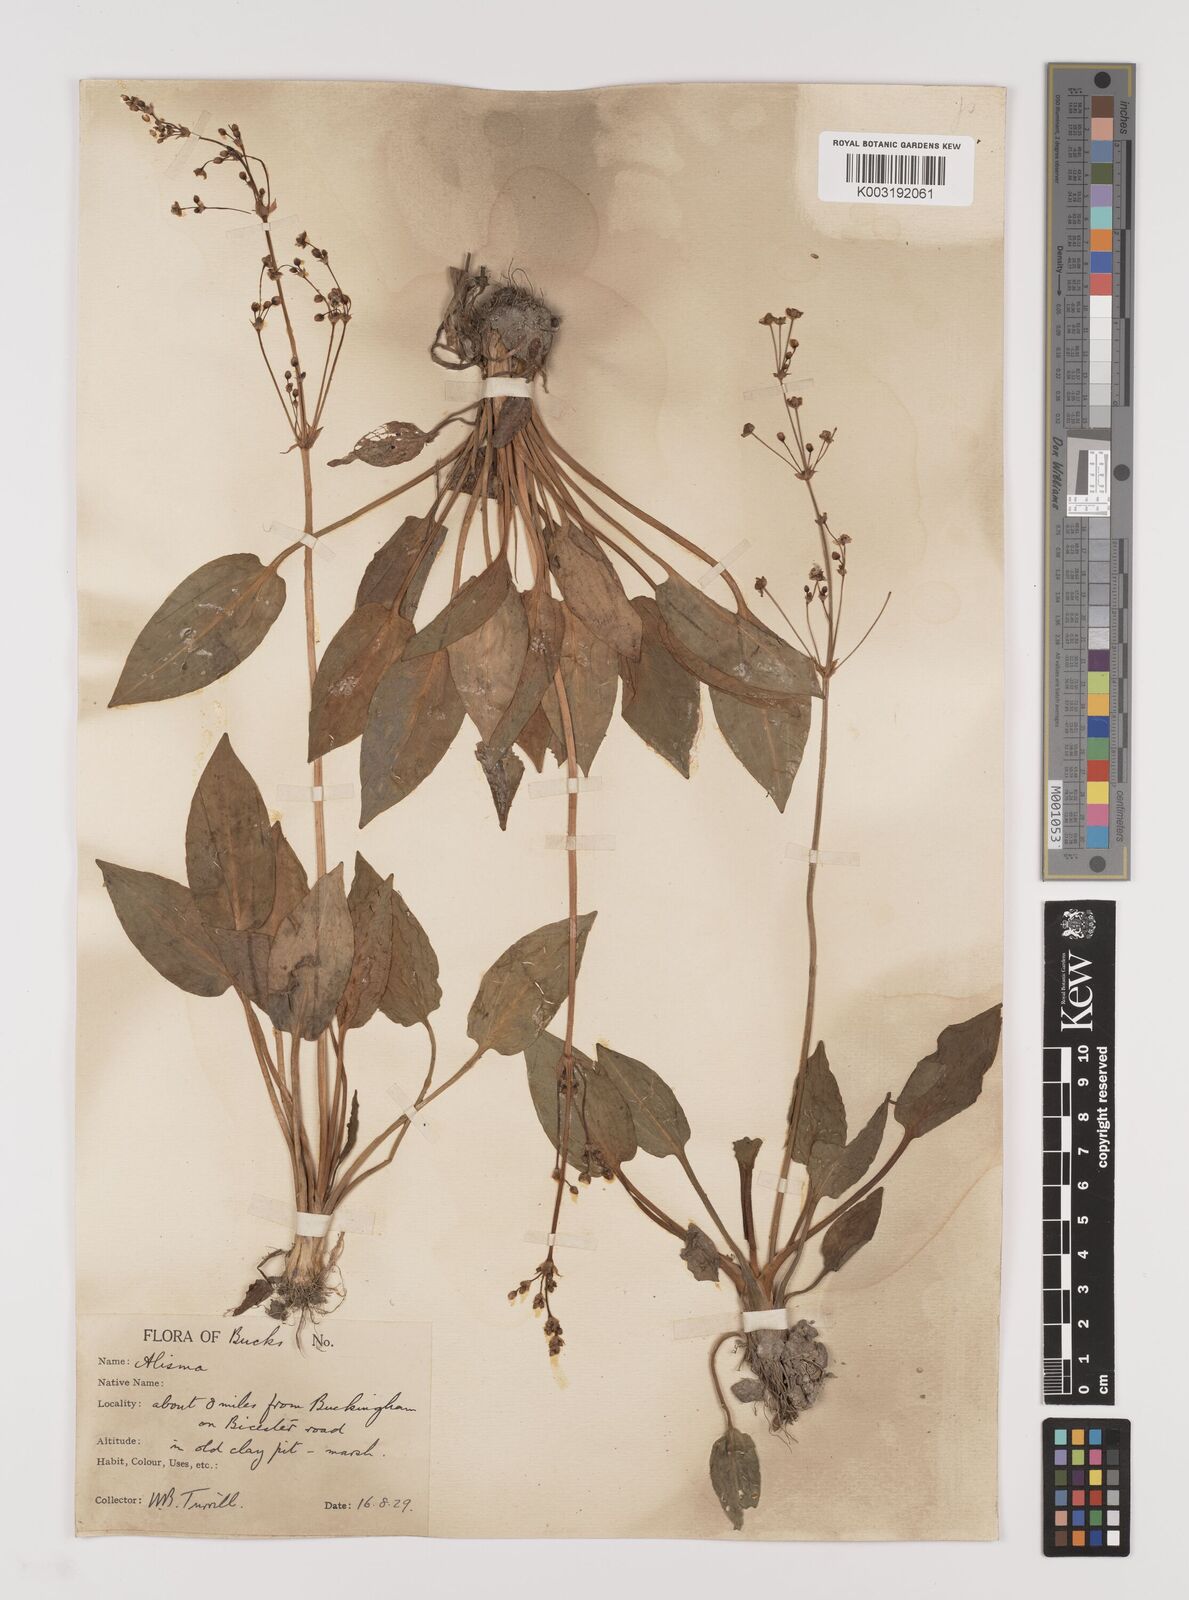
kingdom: Plantae
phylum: Tracheophyta
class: Liliopsida
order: Alismatales
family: Alismataceae
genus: Alisma
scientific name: Alisma plantago-aquatica
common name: Water-plantain
